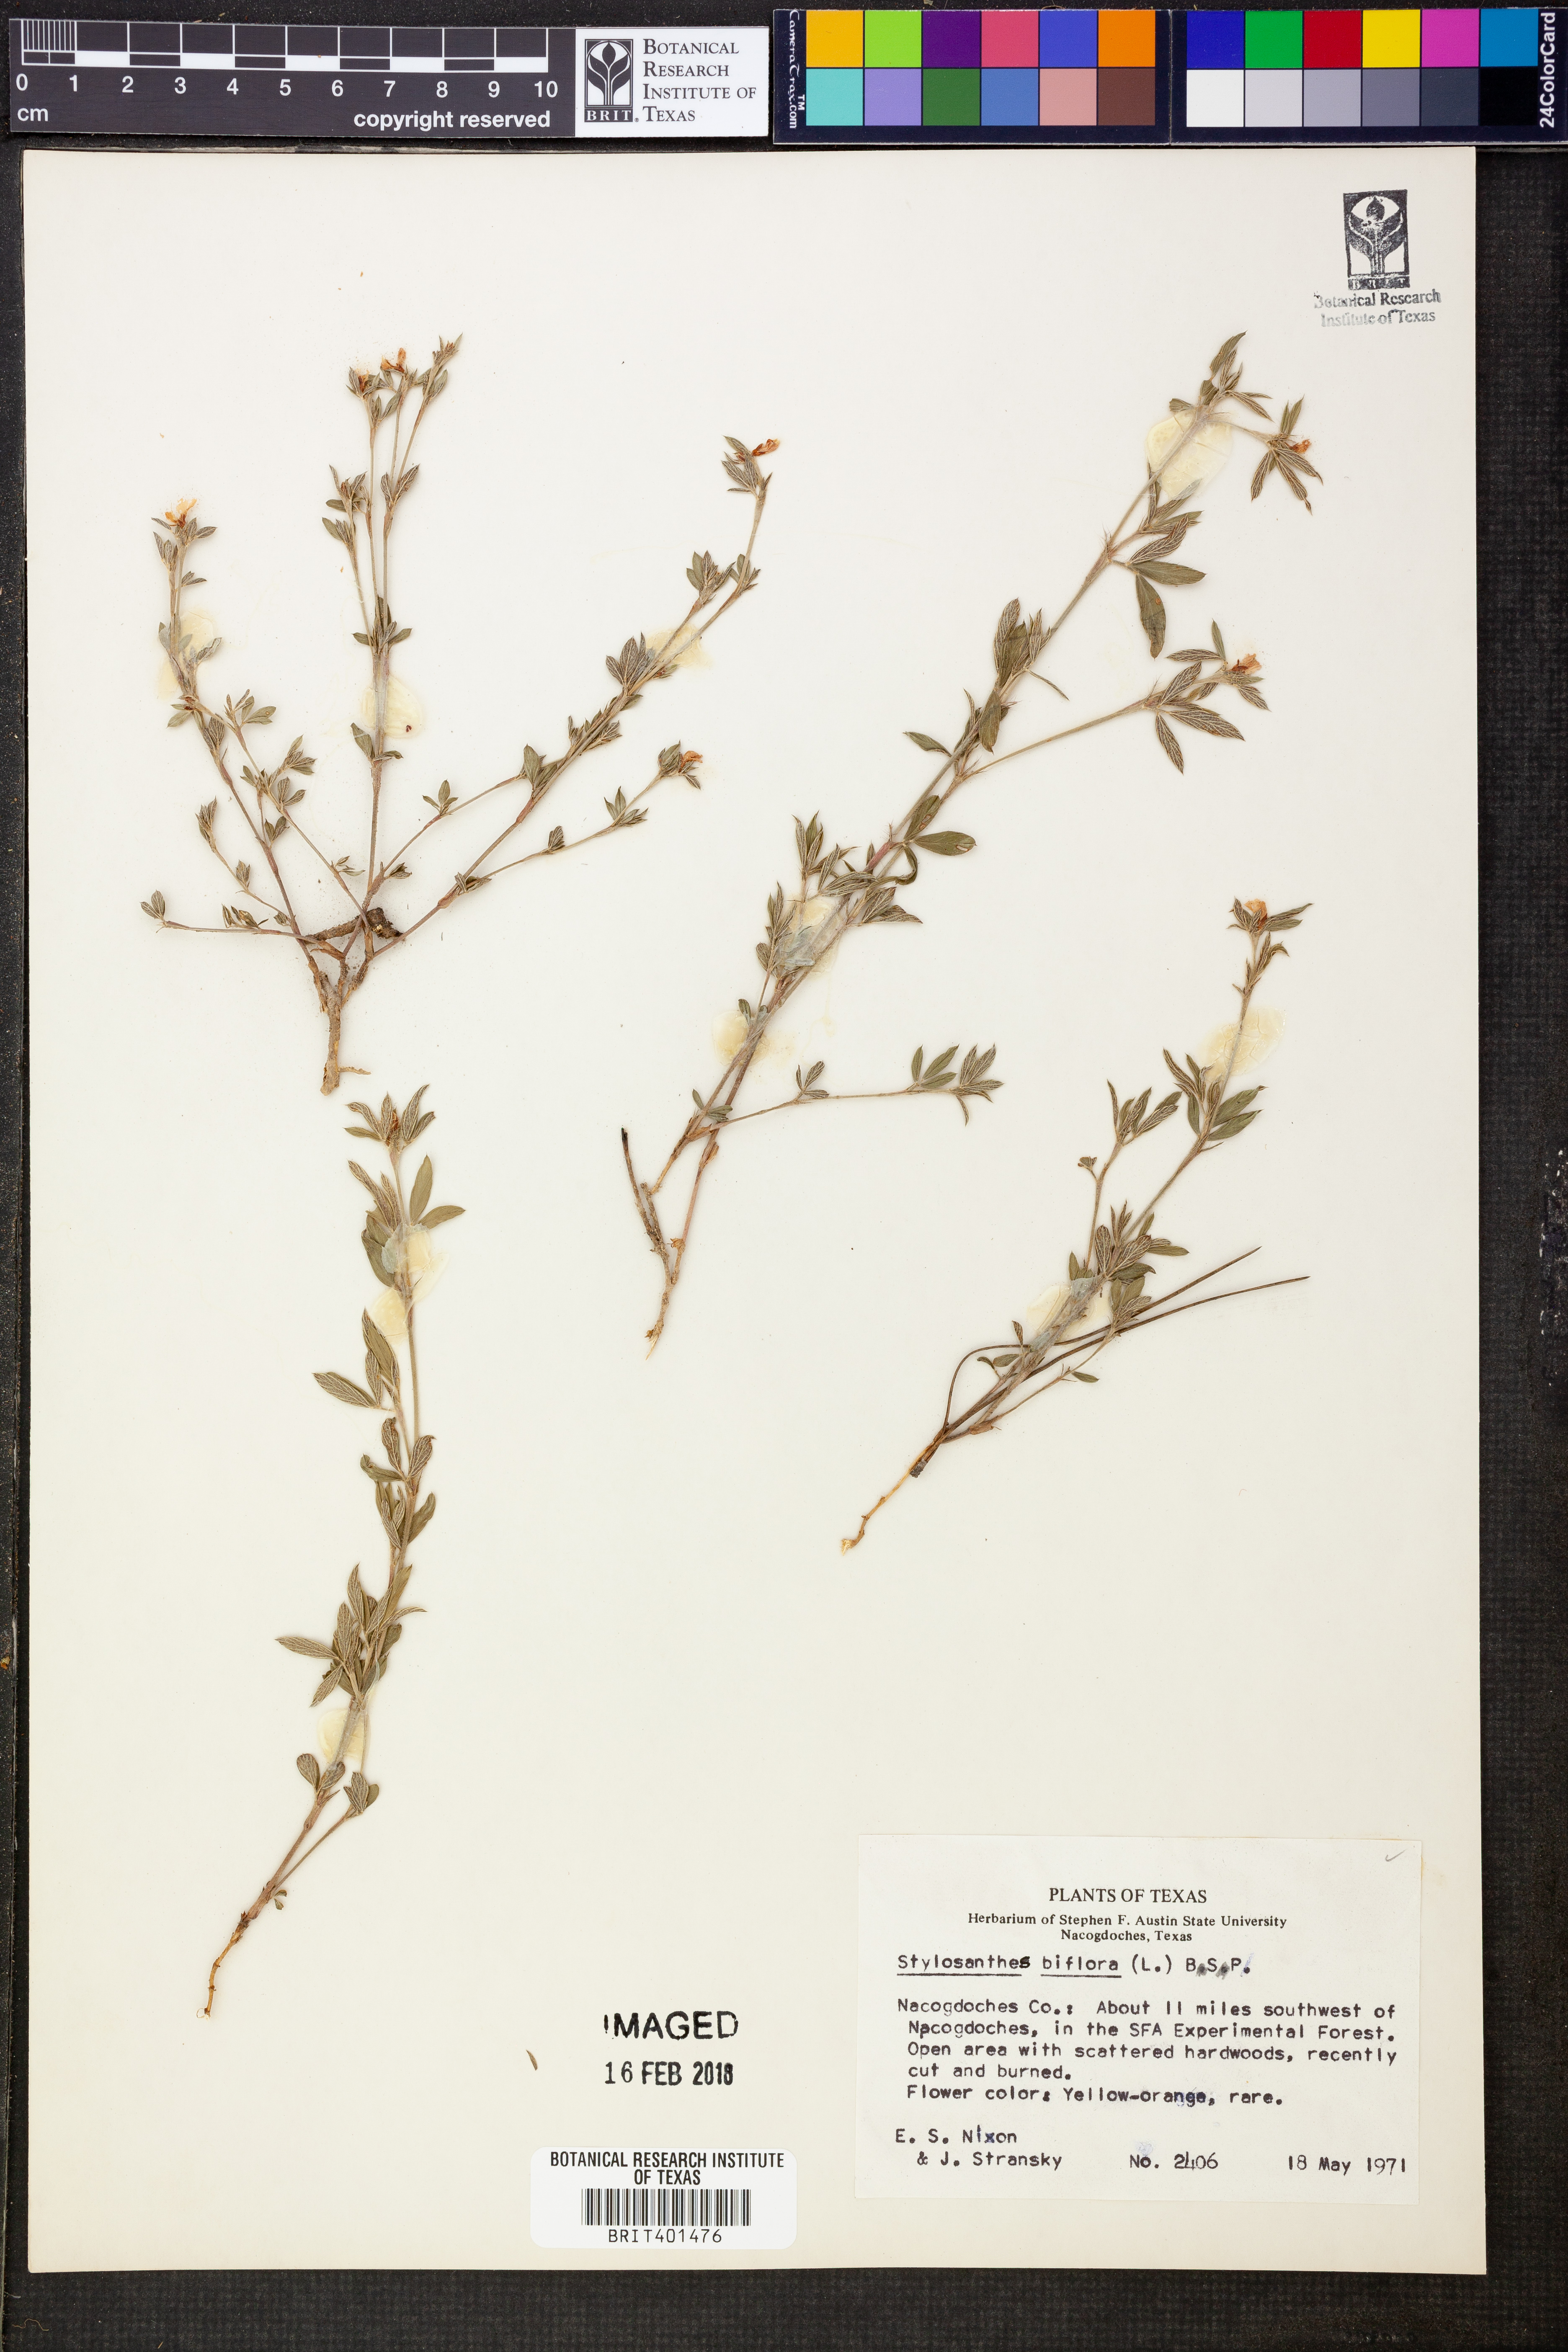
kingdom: Plantae
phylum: Tracheophyta
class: Magnoliopsida
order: Fabales
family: Fabaceae
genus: Stylosanthes
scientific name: Stylosanthes biflora
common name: Two-flower pencil-flower
